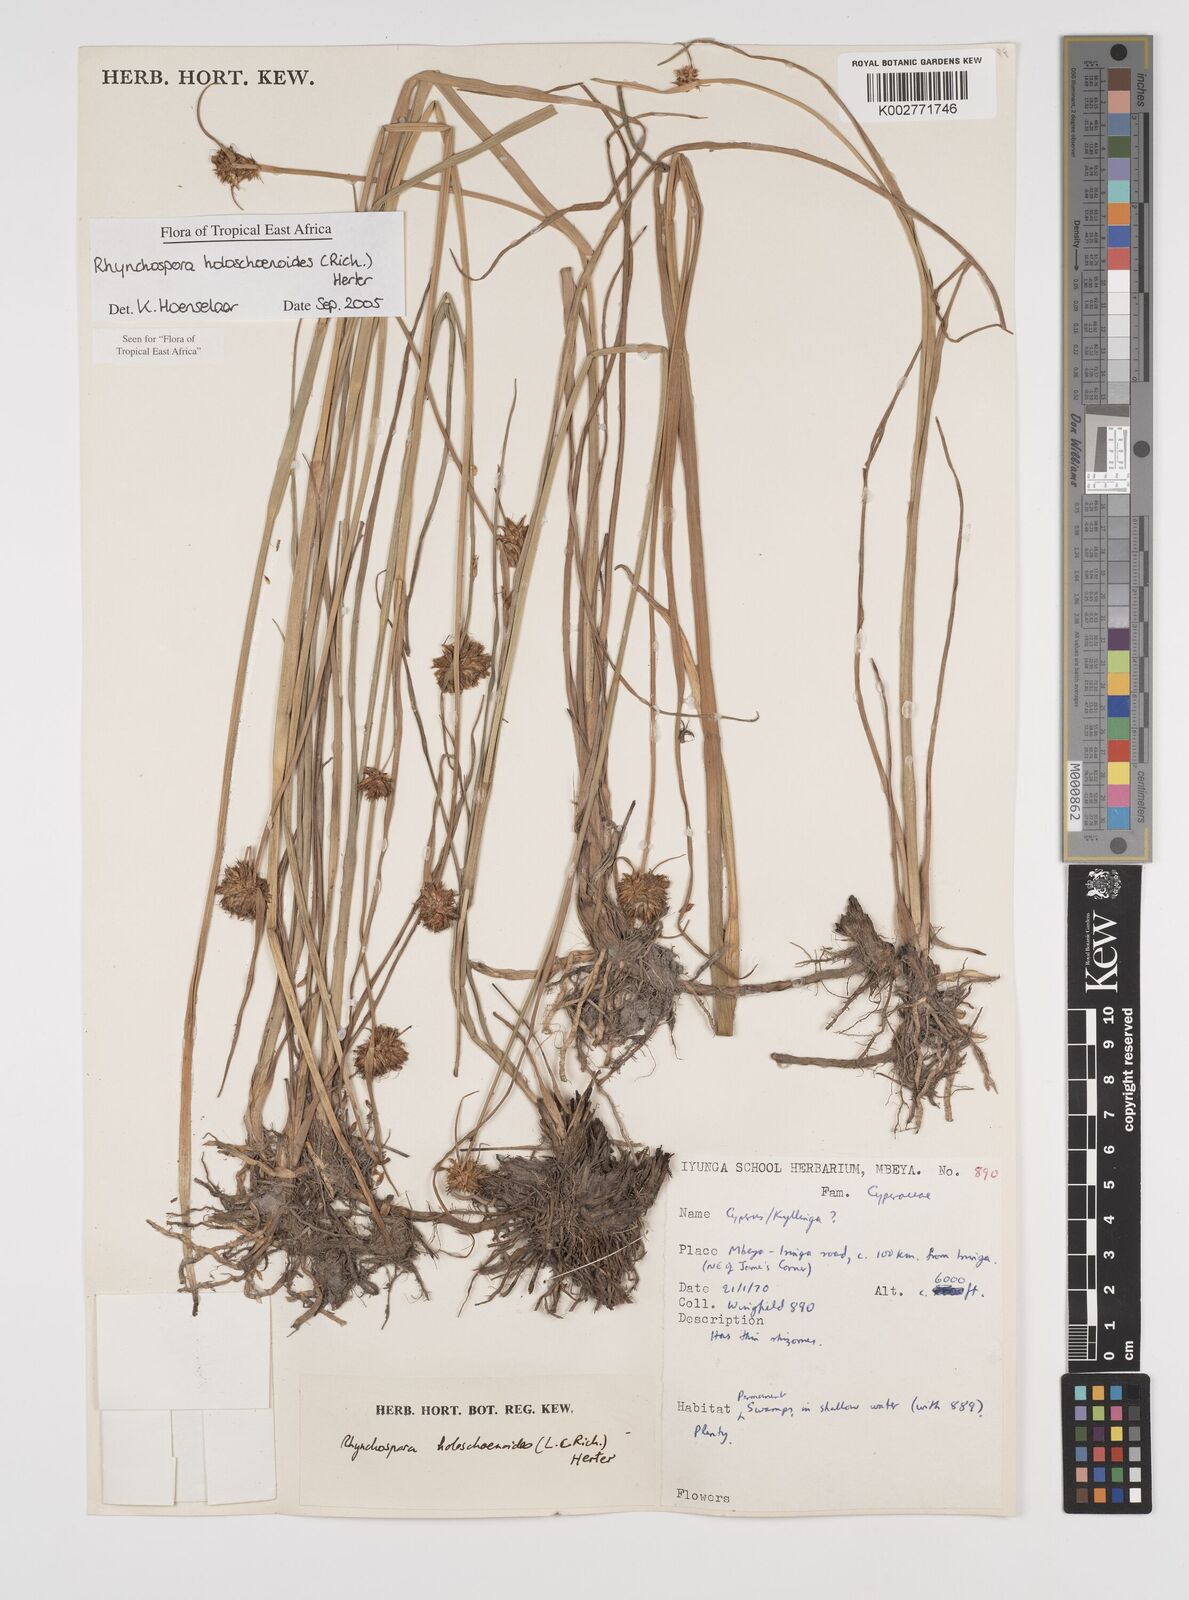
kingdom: Plantae
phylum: Tracheophyta
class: Liliopsida
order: Poales
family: Cyperaceae
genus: Rhynchospora
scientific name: Rhynchospora holoschoenoides
